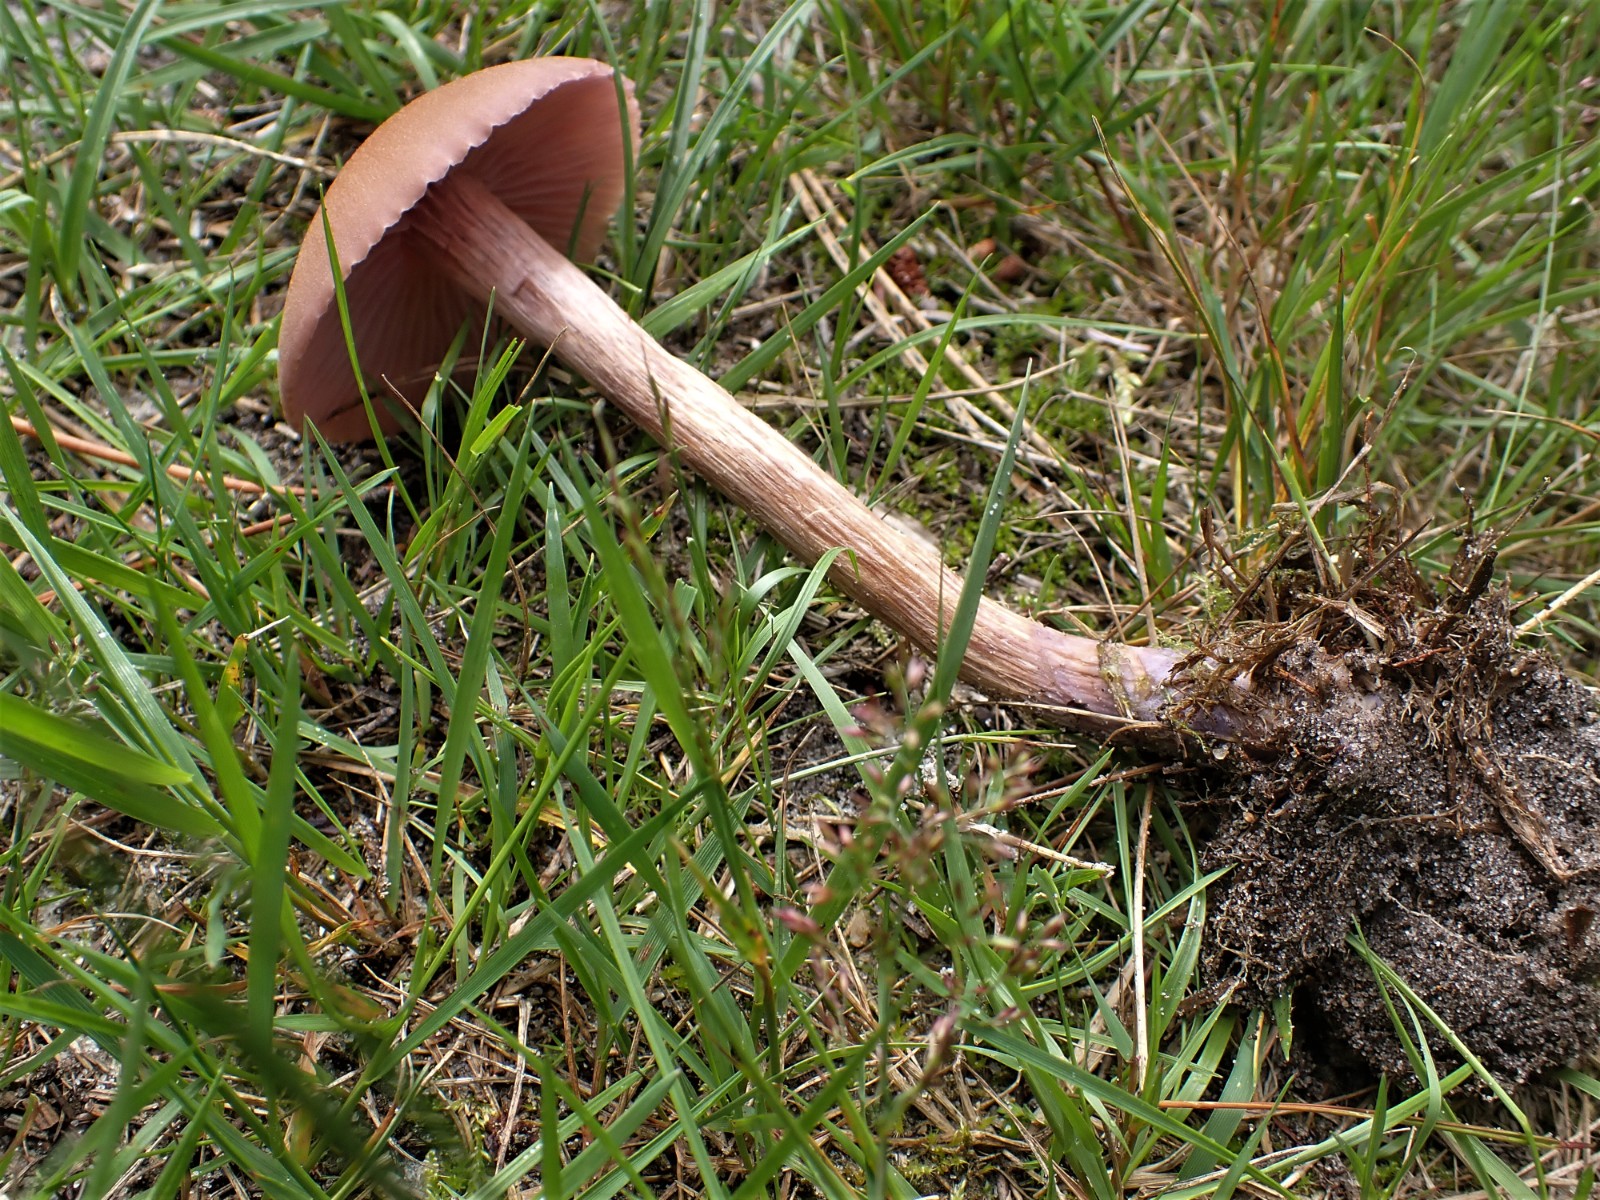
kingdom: Fungi
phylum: Basidiomycota
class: Agaricomycetes
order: Agaricales
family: Hydnangiaceae
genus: Laccaria
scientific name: Laccaria bicolor
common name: tvefarvet ametysthat
